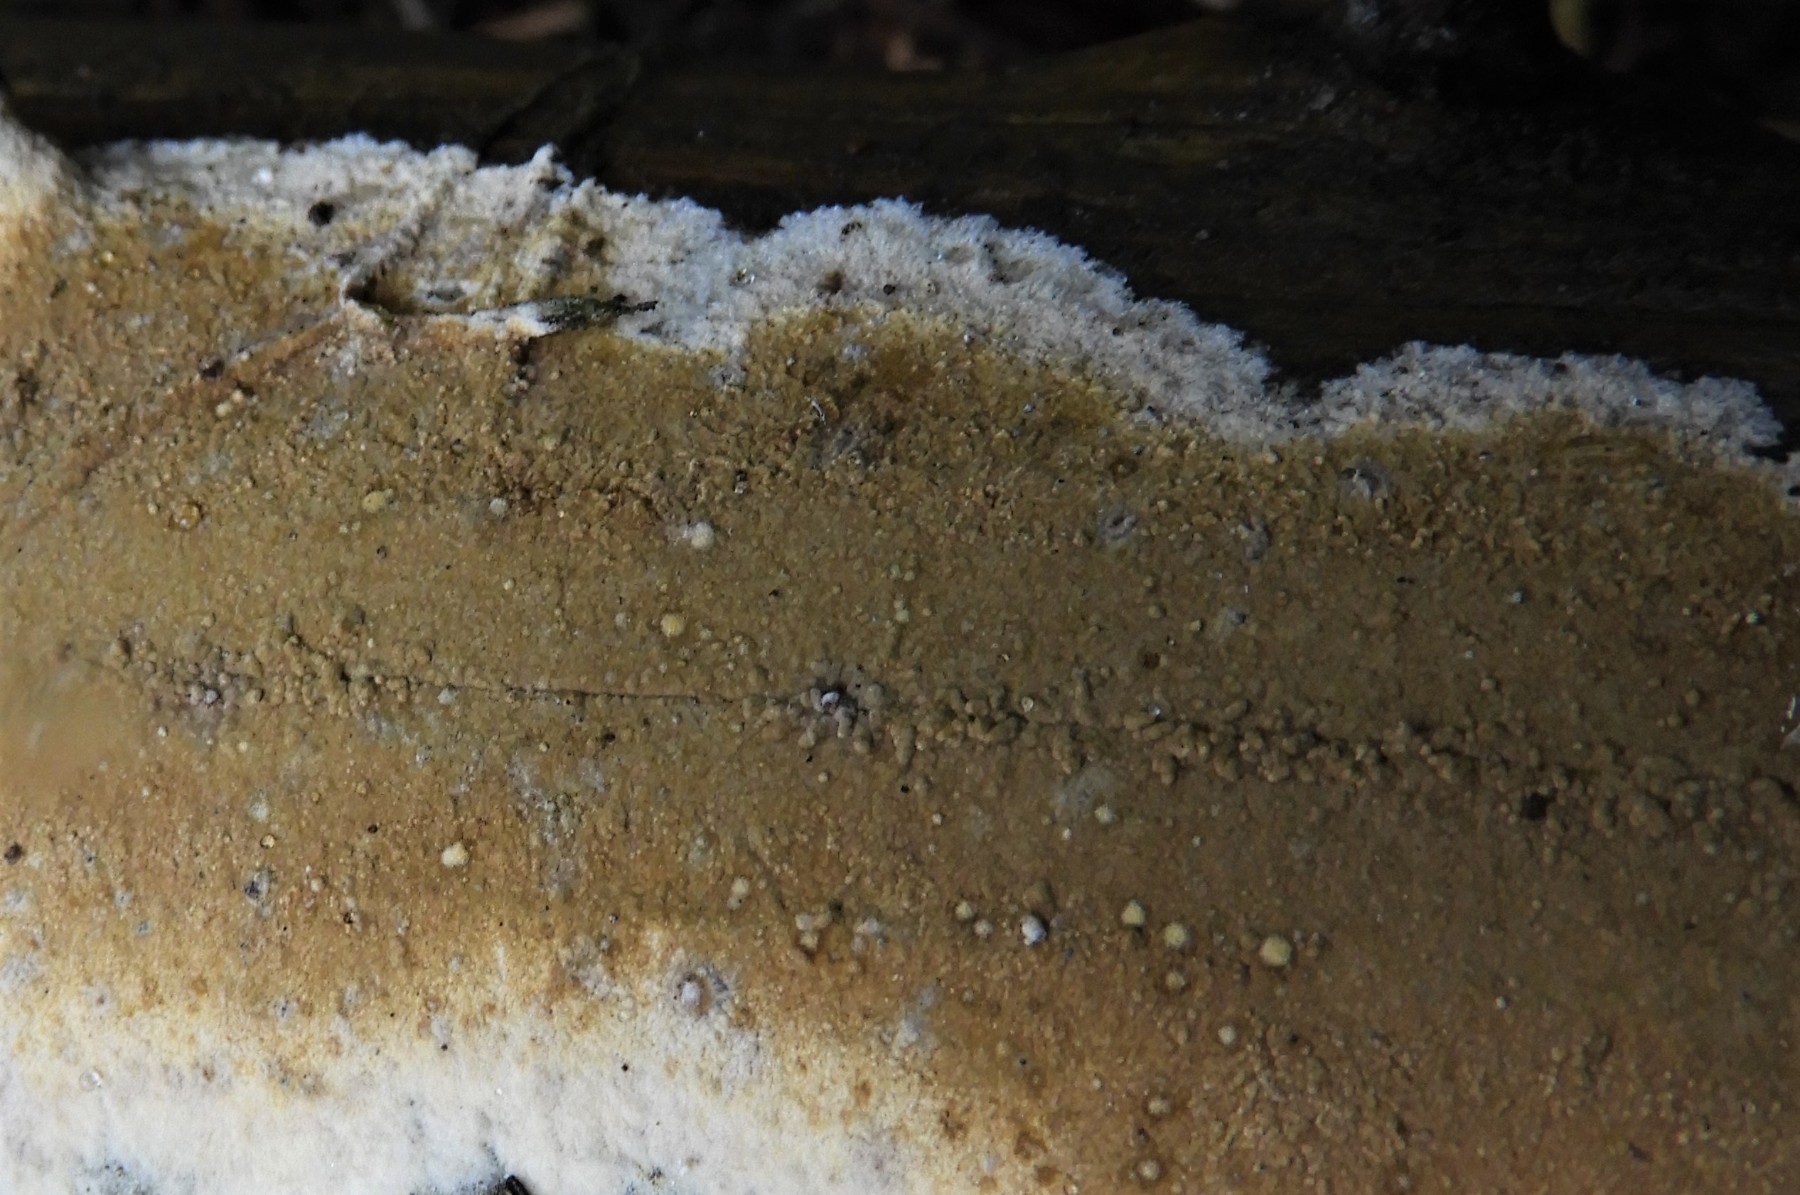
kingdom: Fungi
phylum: Basidiomycota
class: Agaricomycetes
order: Boletales
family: Coniophoraceae
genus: Coniophora
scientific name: Coniophora
